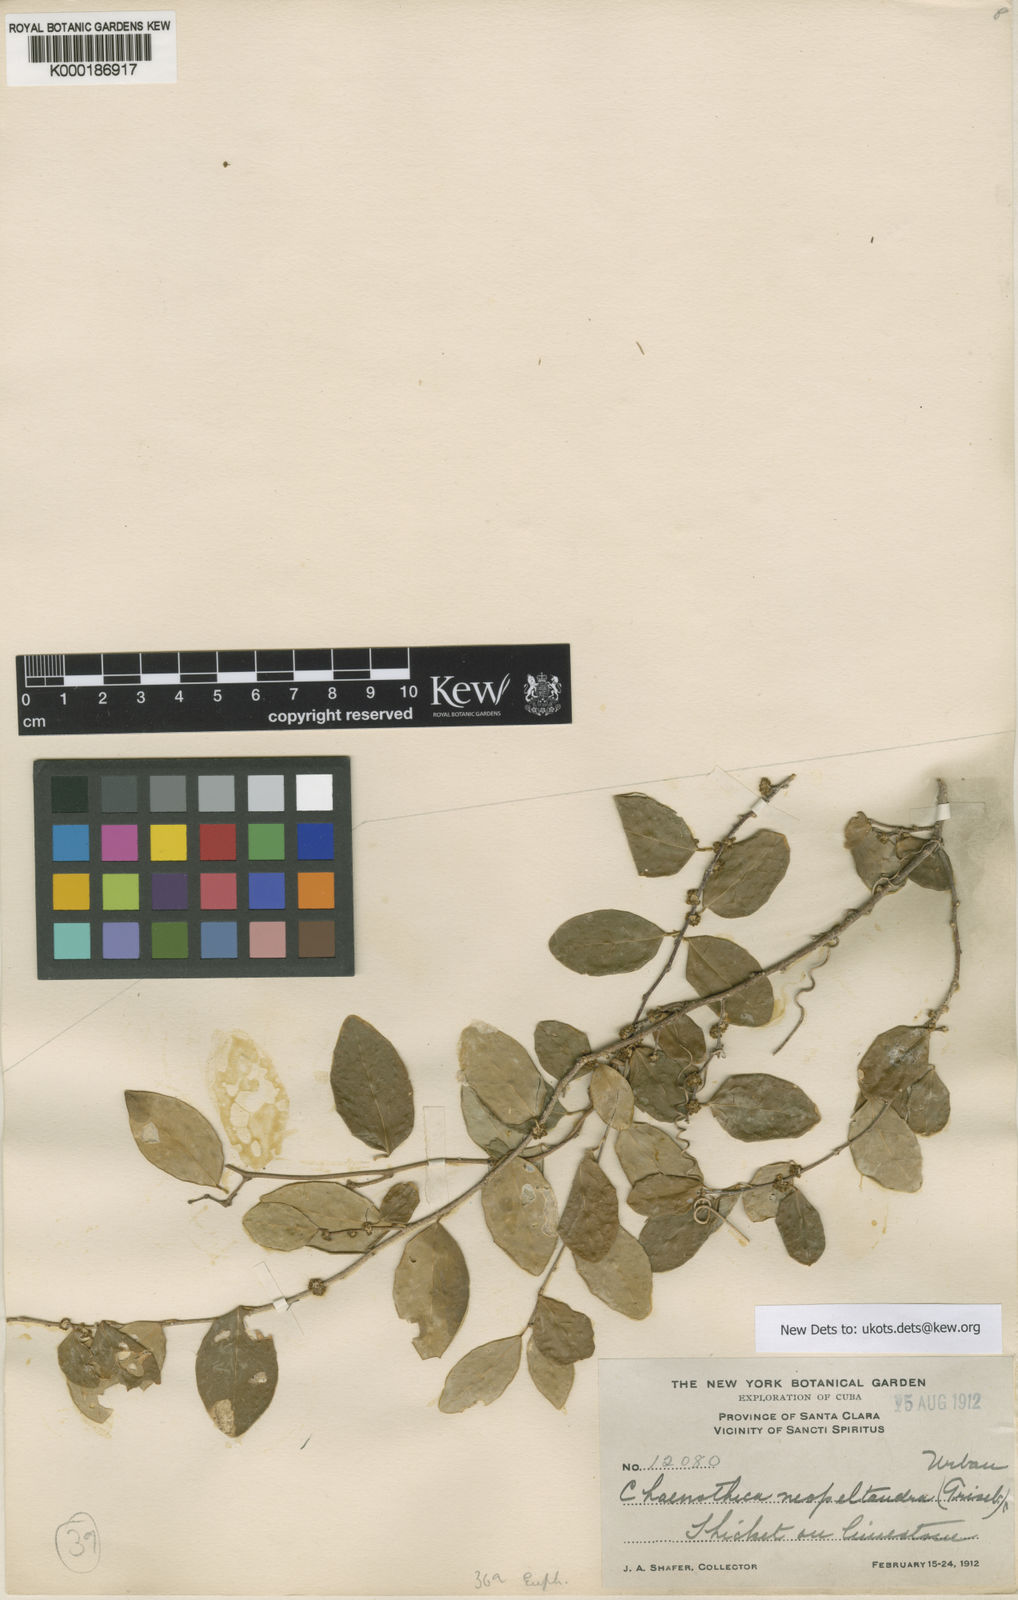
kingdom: Plantae
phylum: Tracheophyta
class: Magnoliopsida
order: Malpighiales
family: Phyllanthaceae
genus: Chascotheca
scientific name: Chascotheca neopeltandra
